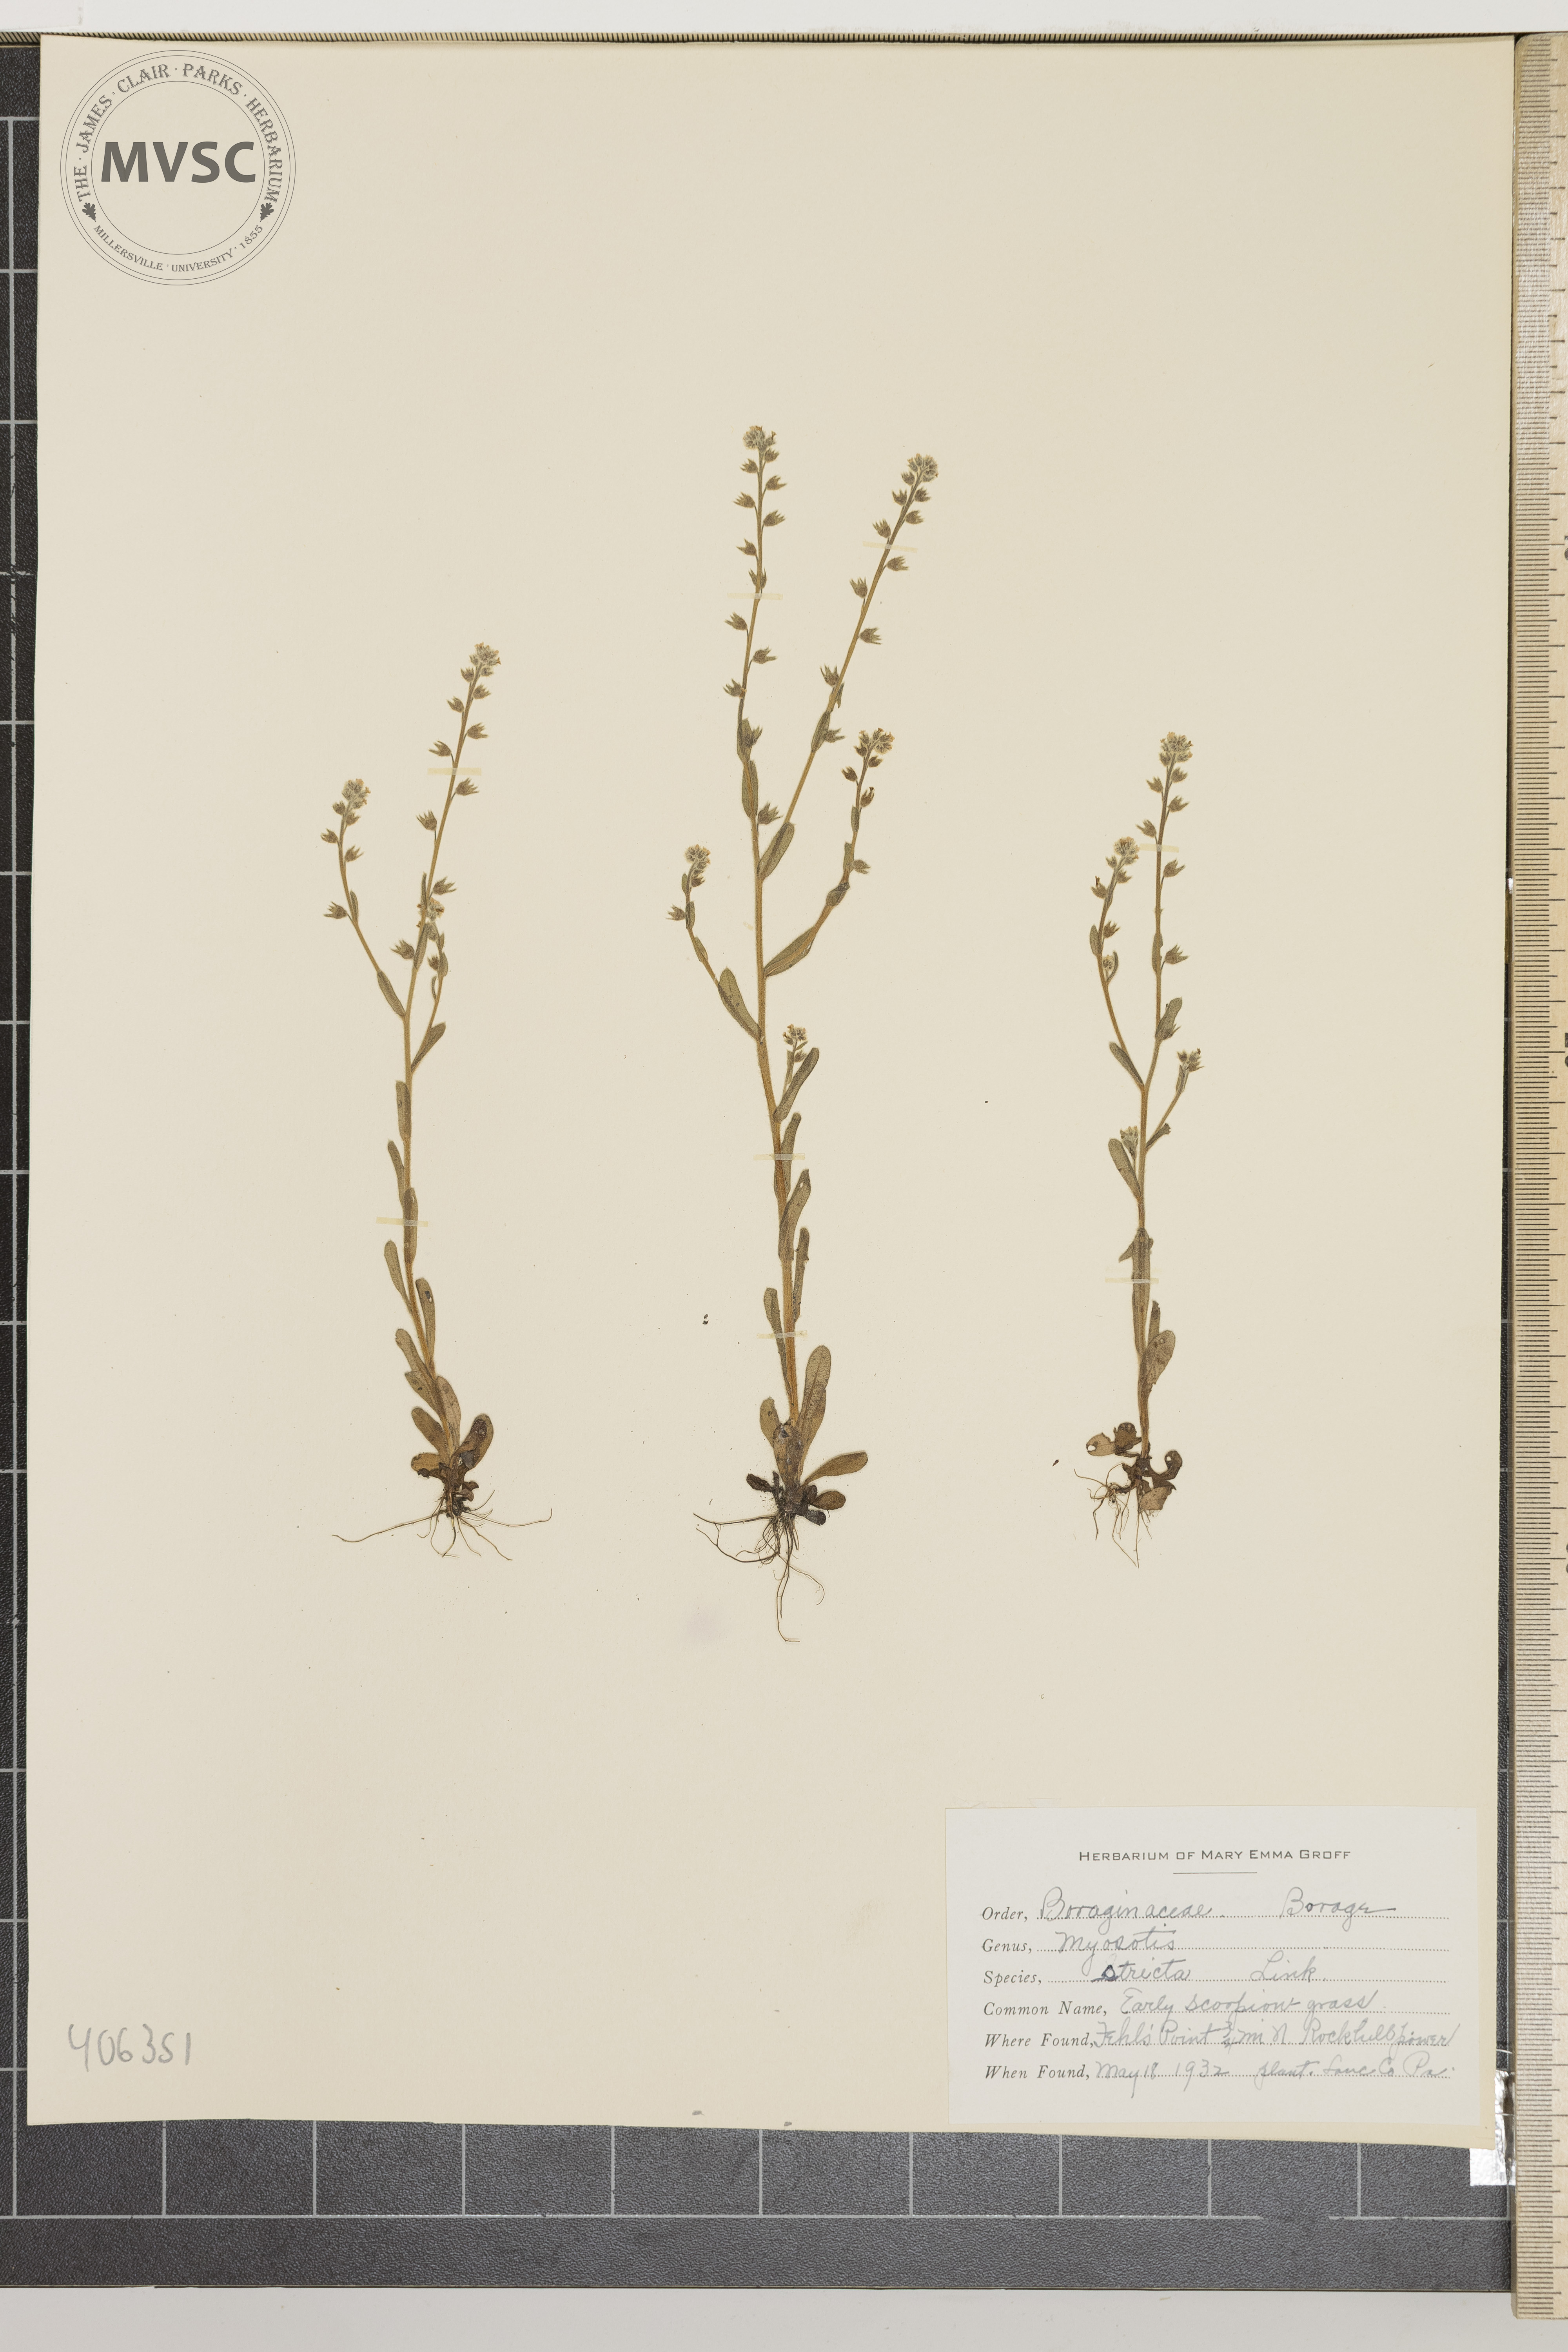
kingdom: Plantae
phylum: Tracheophyta
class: Magnoliopsida
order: Boraginales
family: Boraginaceae
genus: Myosotis
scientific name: Myosotis stricta
